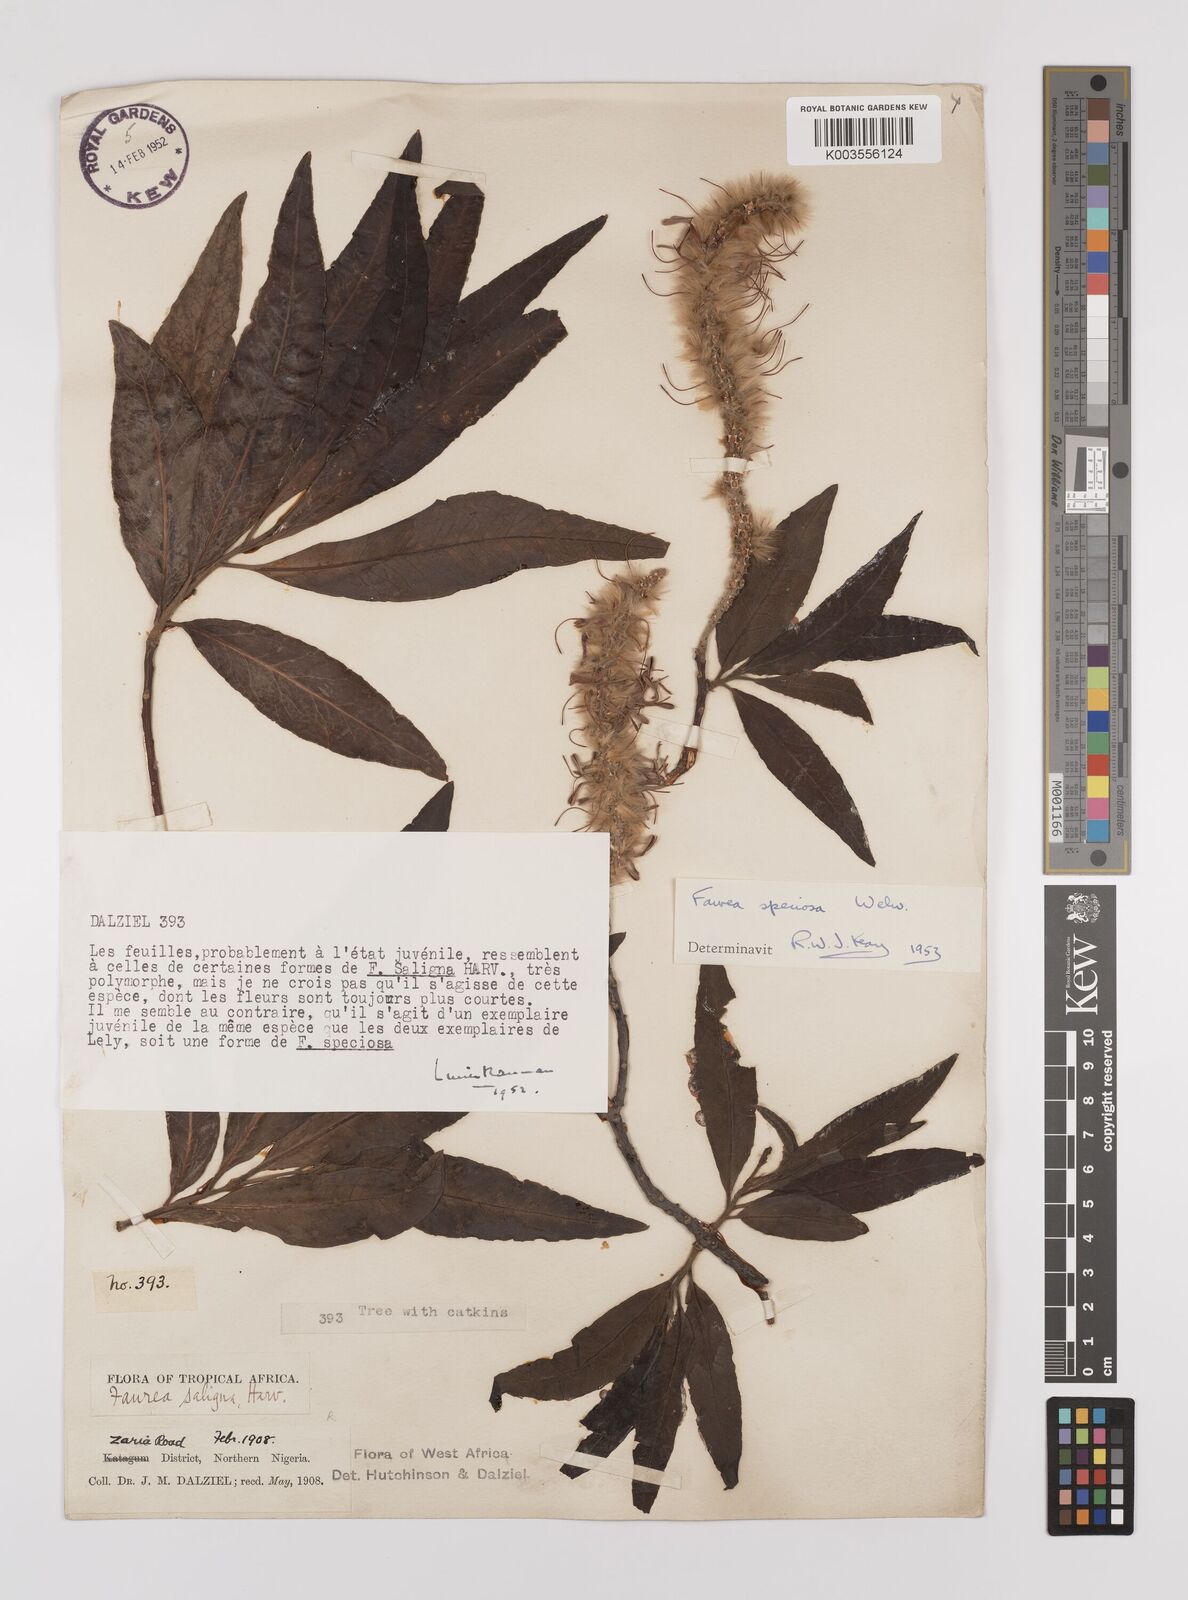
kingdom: Plantae
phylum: Tracheophyta
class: Magnoliopsida
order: Proteales
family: Proteaceae
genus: Faurea
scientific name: Faurea
